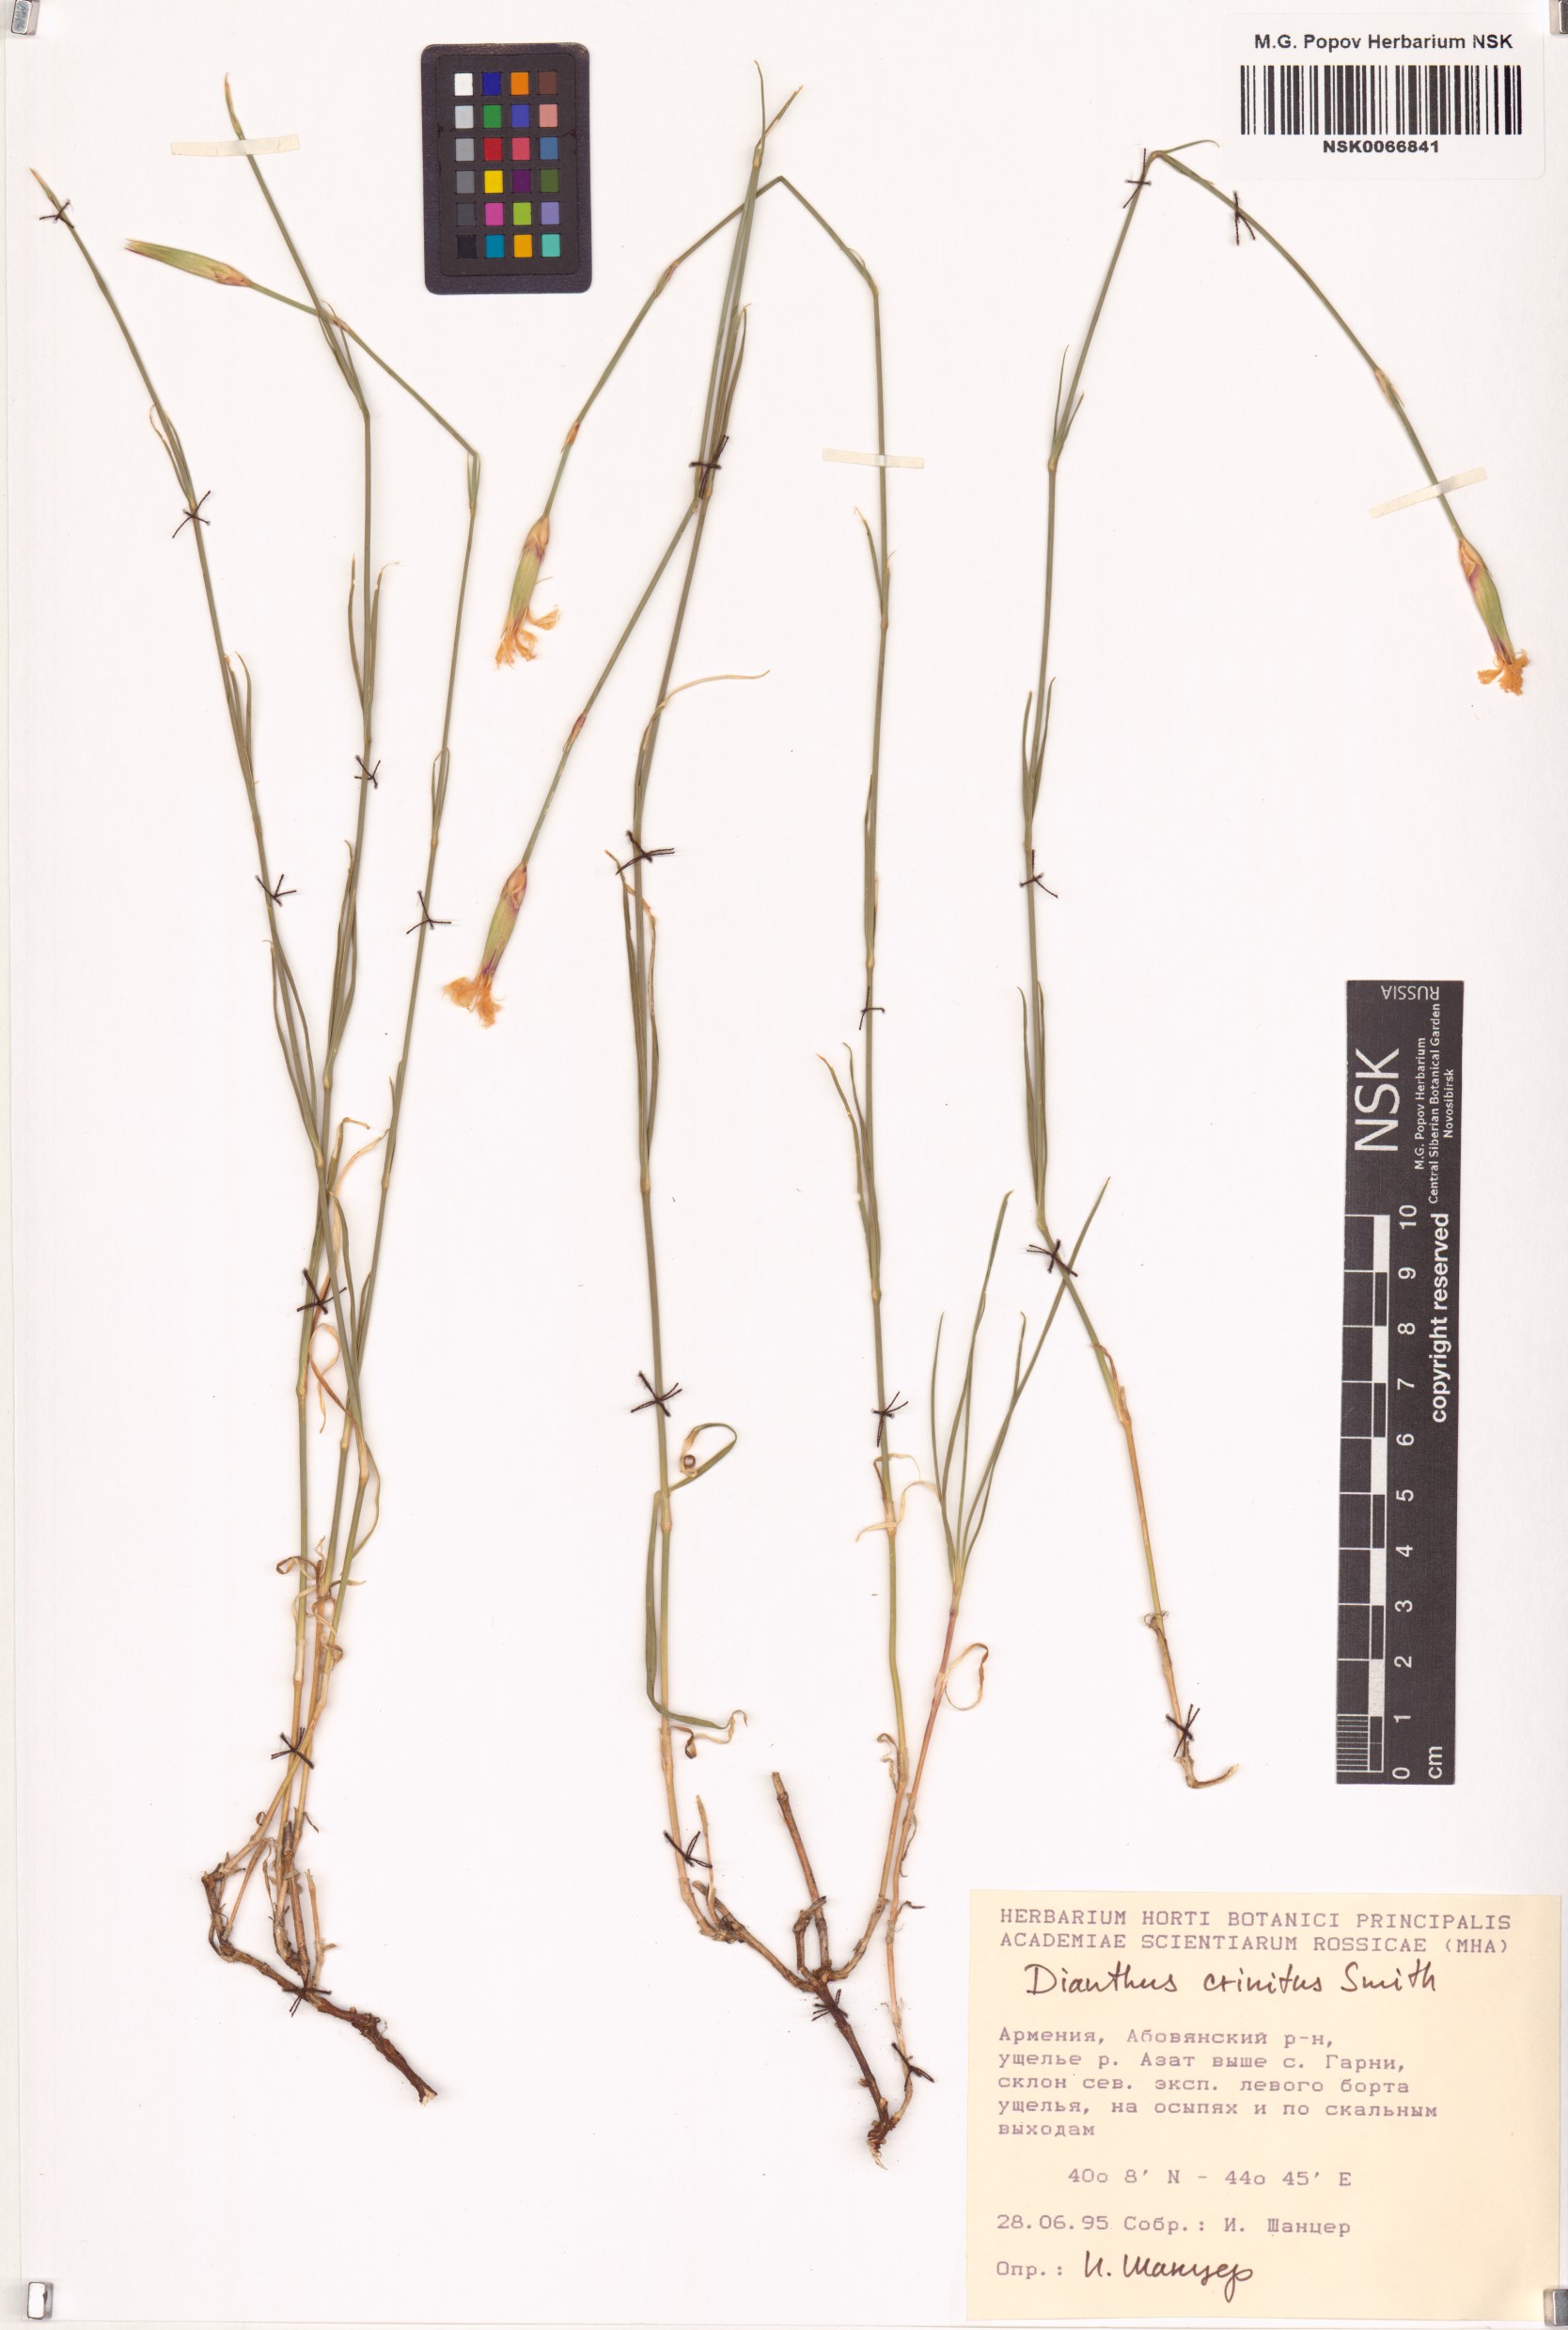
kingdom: Plantae
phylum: Tracheophyta
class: Magnoliopsida
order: Caryophyllales
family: Caryophyllaceae
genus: Dianthus
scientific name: Dianthus crinitus
